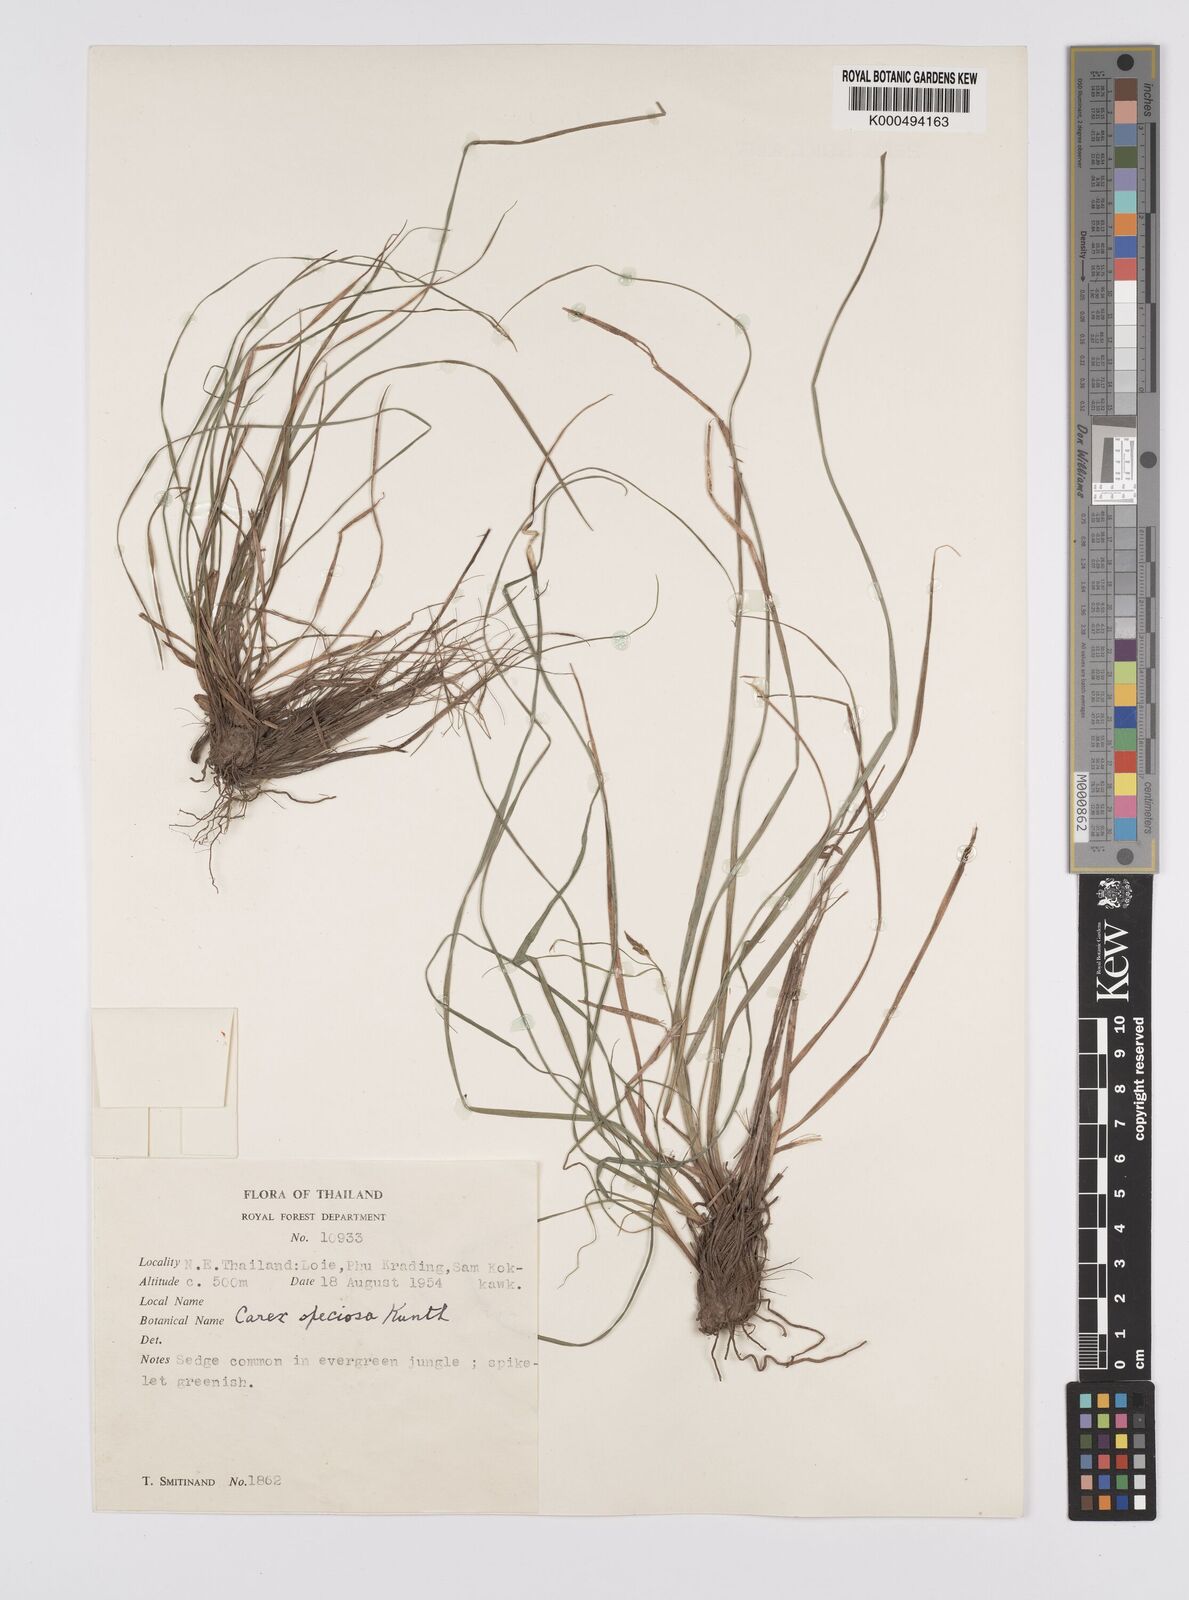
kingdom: Plantae
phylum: Tracheophyta
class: Liliopsida
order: Poales
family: Cyperaceae
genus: Carex
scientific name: Carex speciosa
